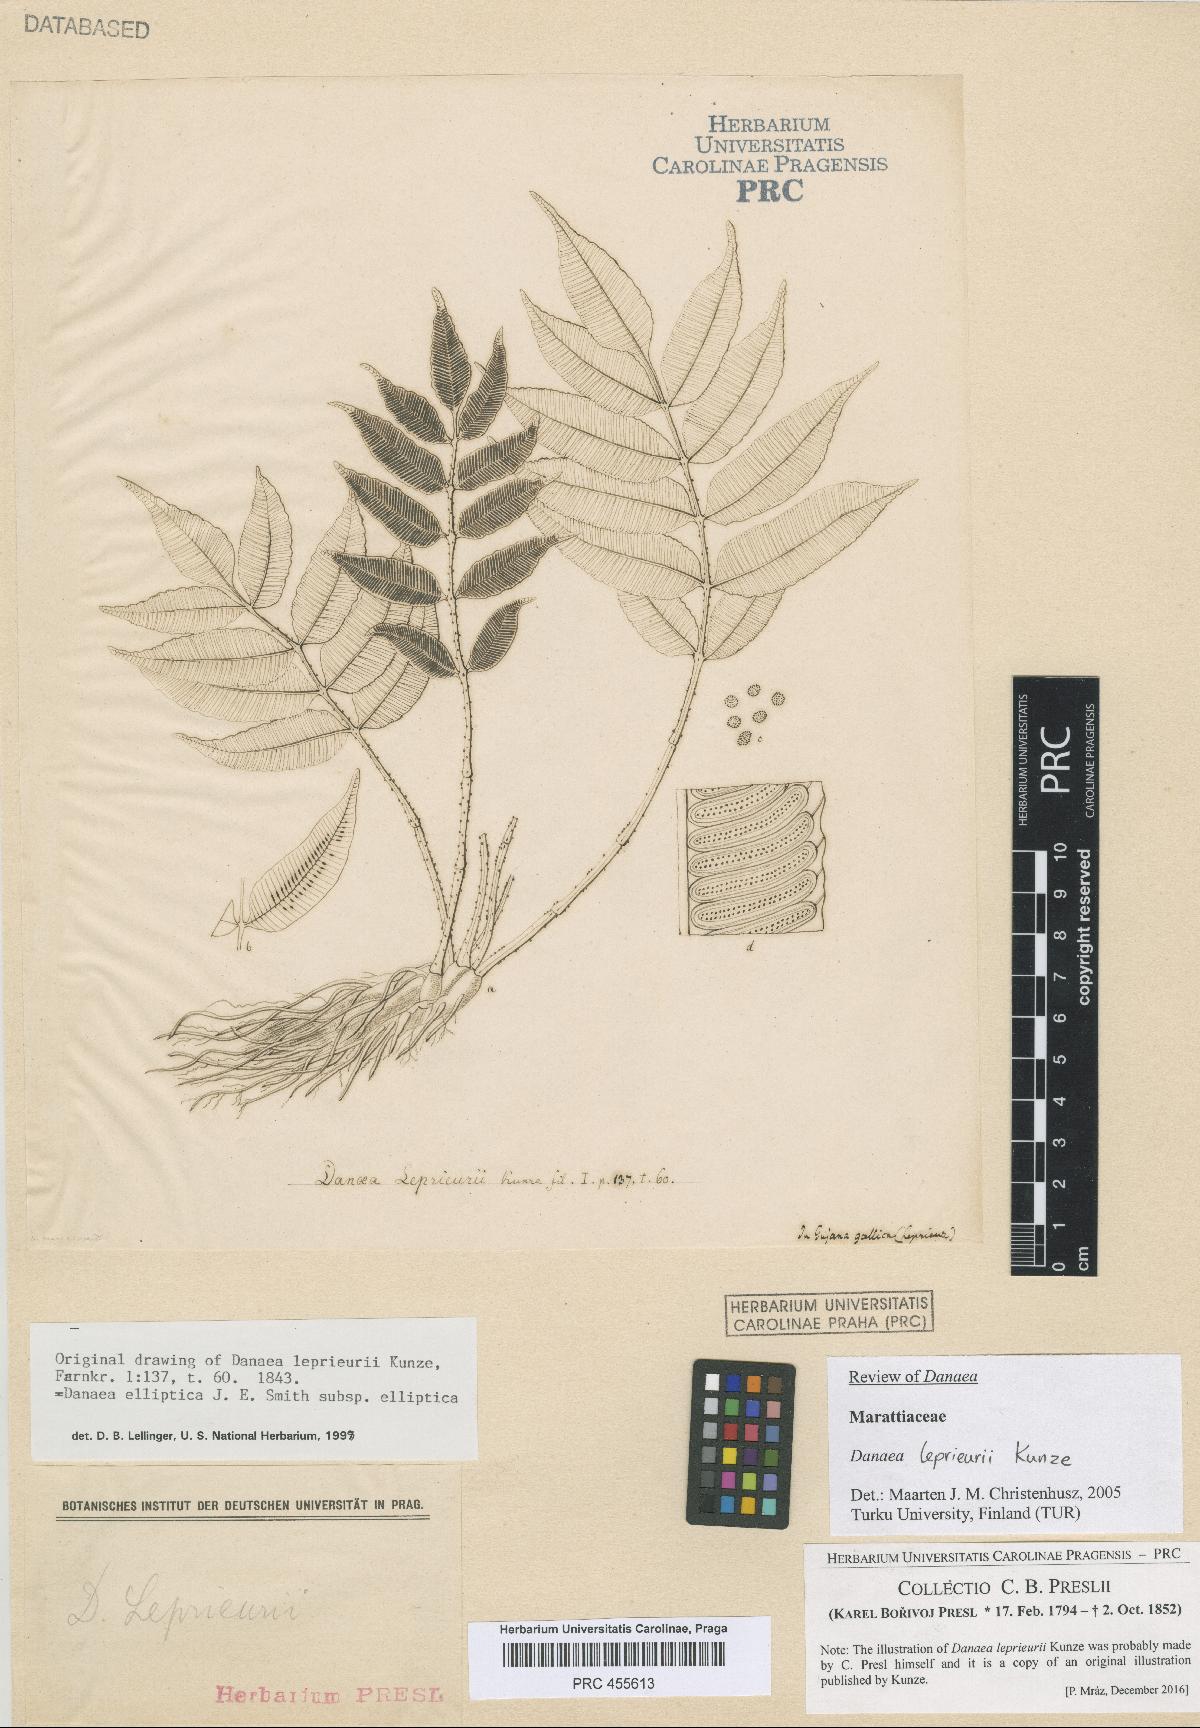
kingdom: Plantae
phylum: Tracheophyta
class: Polypodiopsida
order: Marattiales
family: Marattiaceae
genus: Danaea
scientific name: Danaea leprieurii
